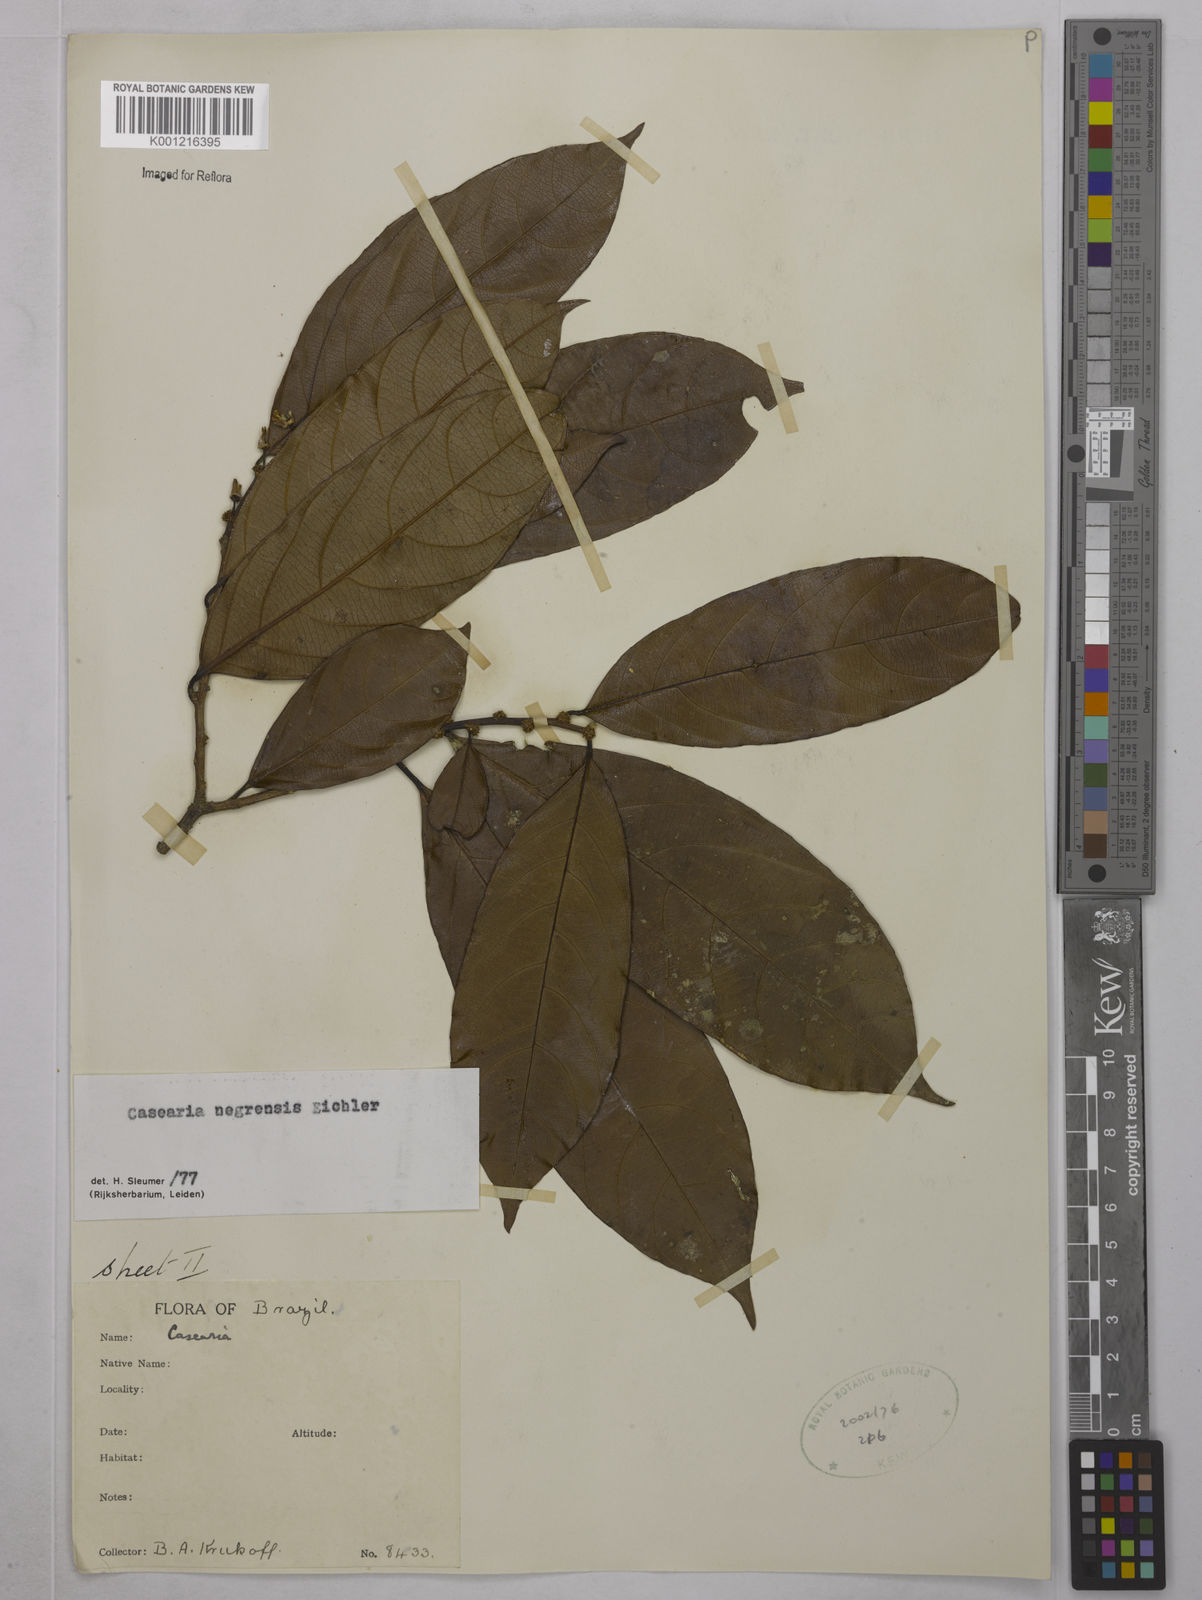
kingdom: Plantae
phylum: Tracheophyta
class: Magnoliopsida
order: Malpighiales
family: Salicaceae
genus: Casearia
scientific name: Casearia negrensis
